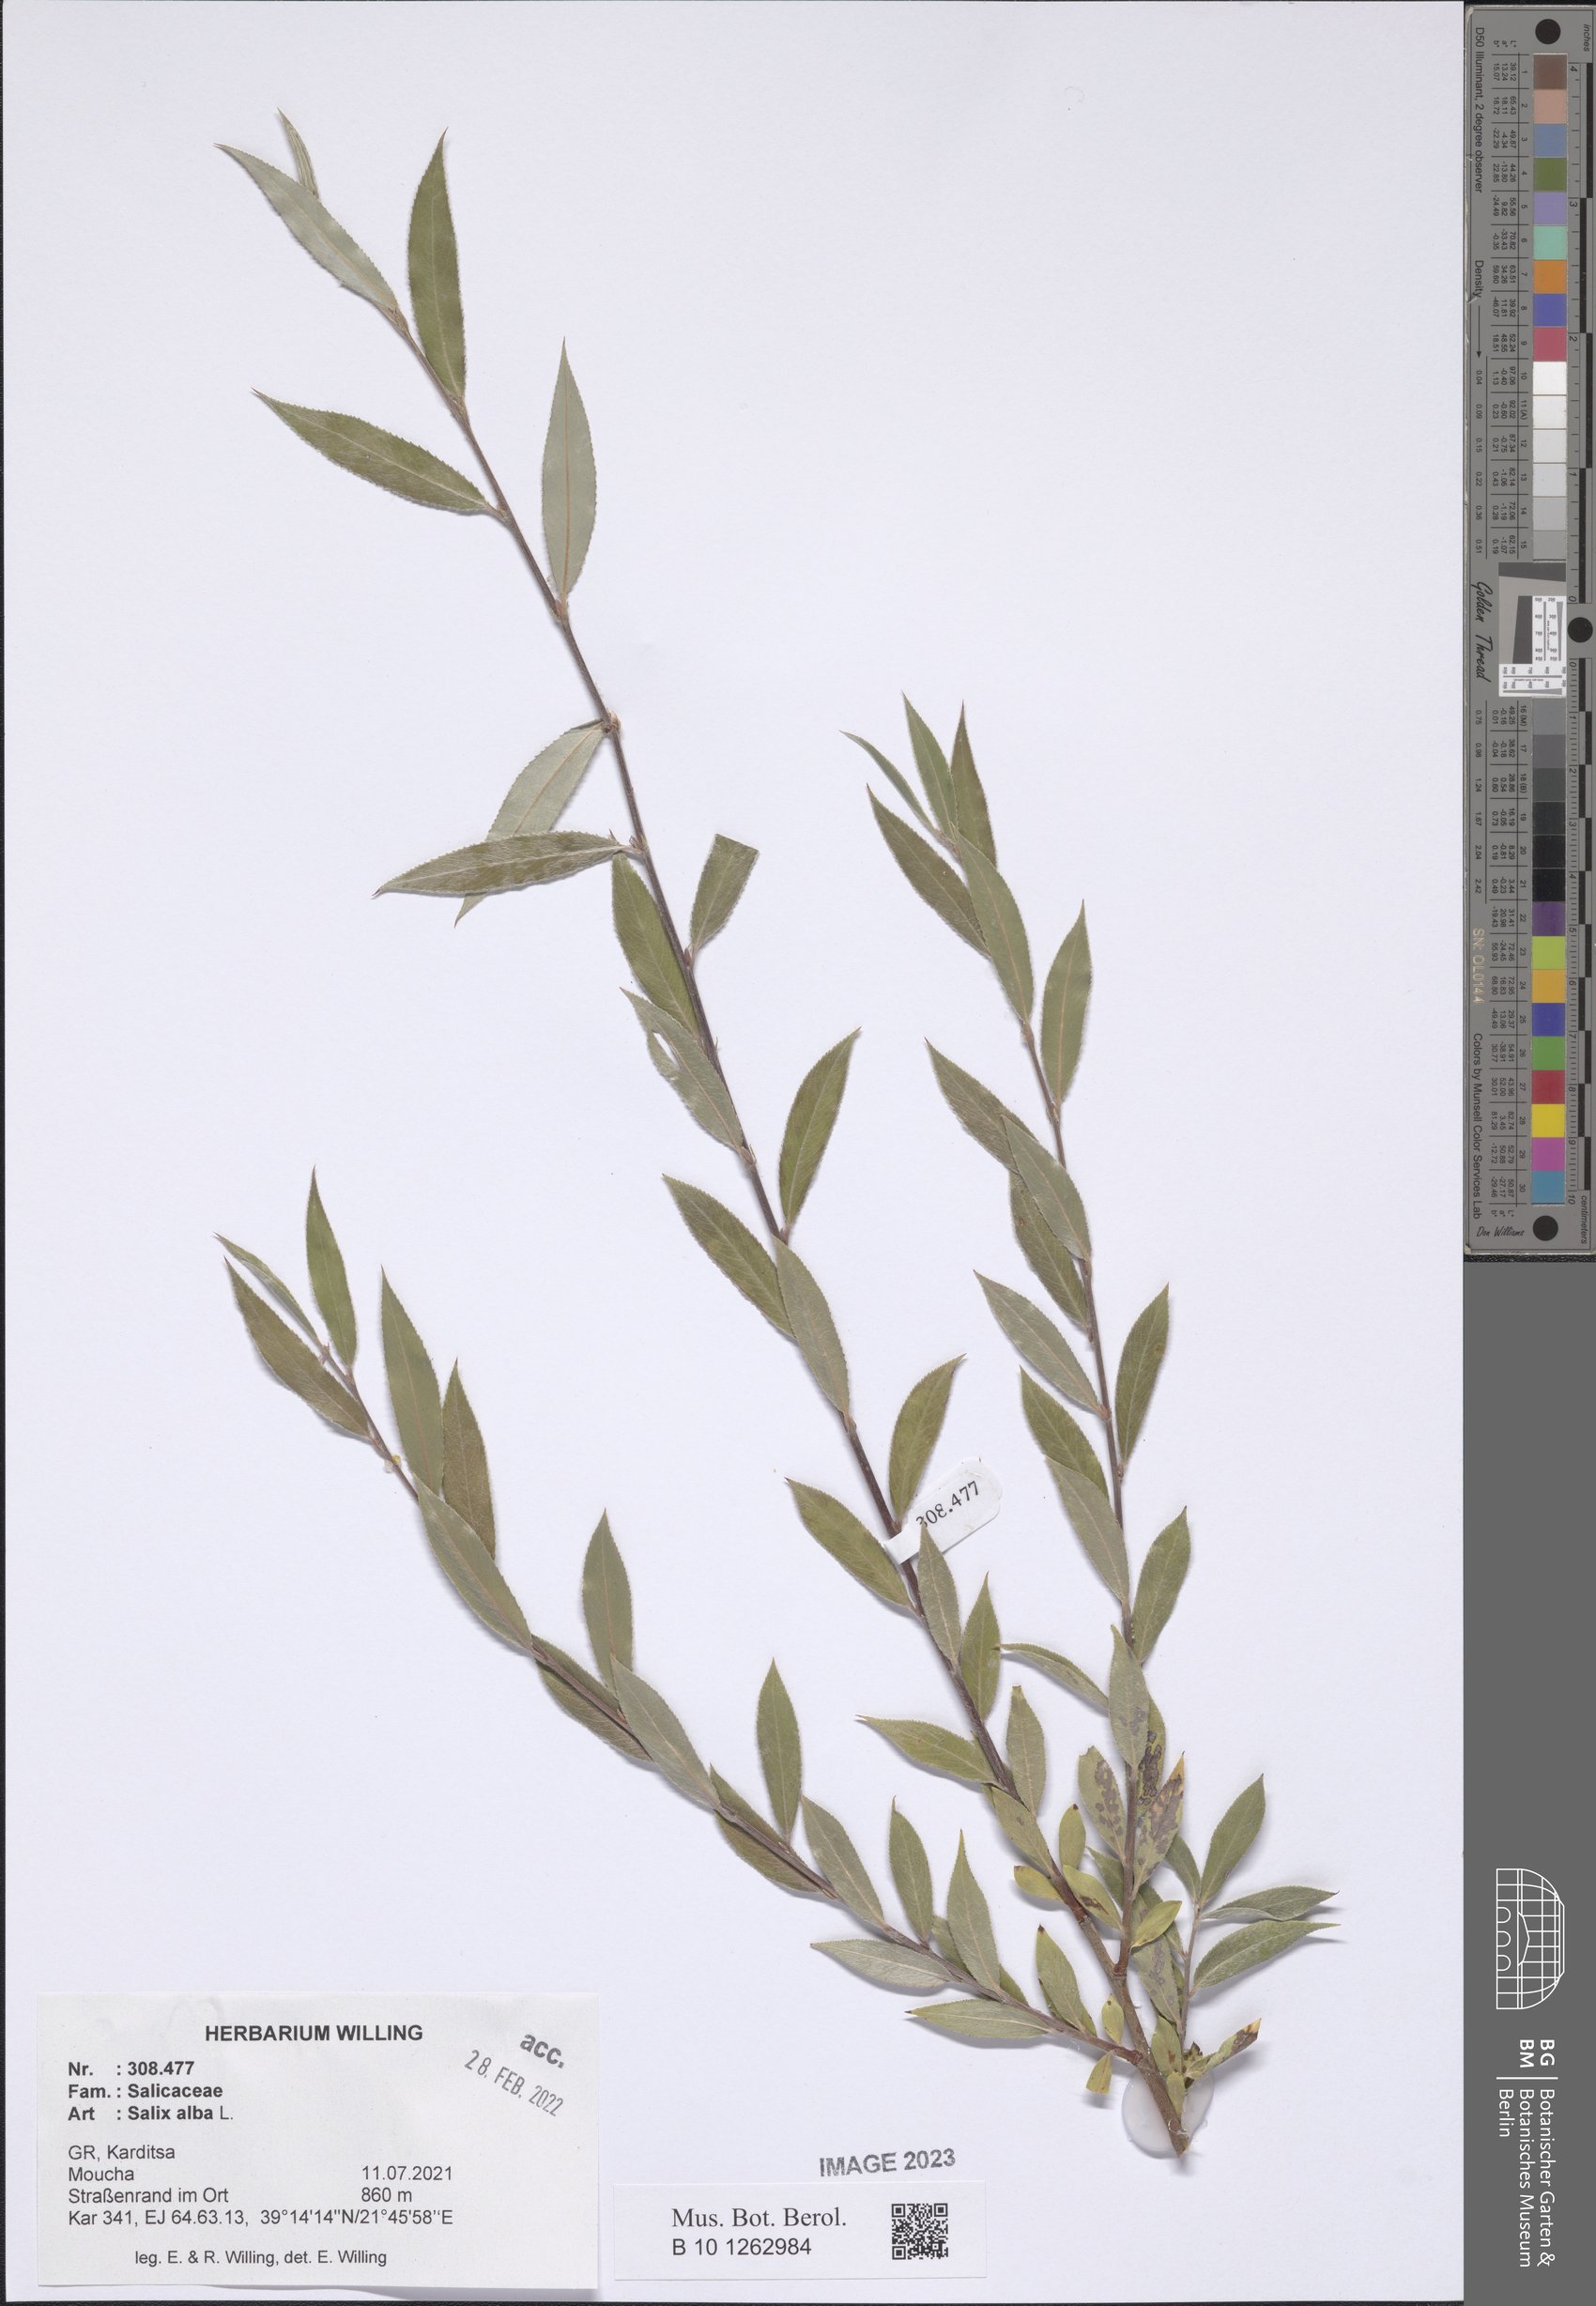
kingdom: Plantae
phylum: Tracheophyta
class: Magnoliopsida
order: Malpighiales
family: Salicaceae
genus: Salix
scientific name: Salix alba
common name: White willow
